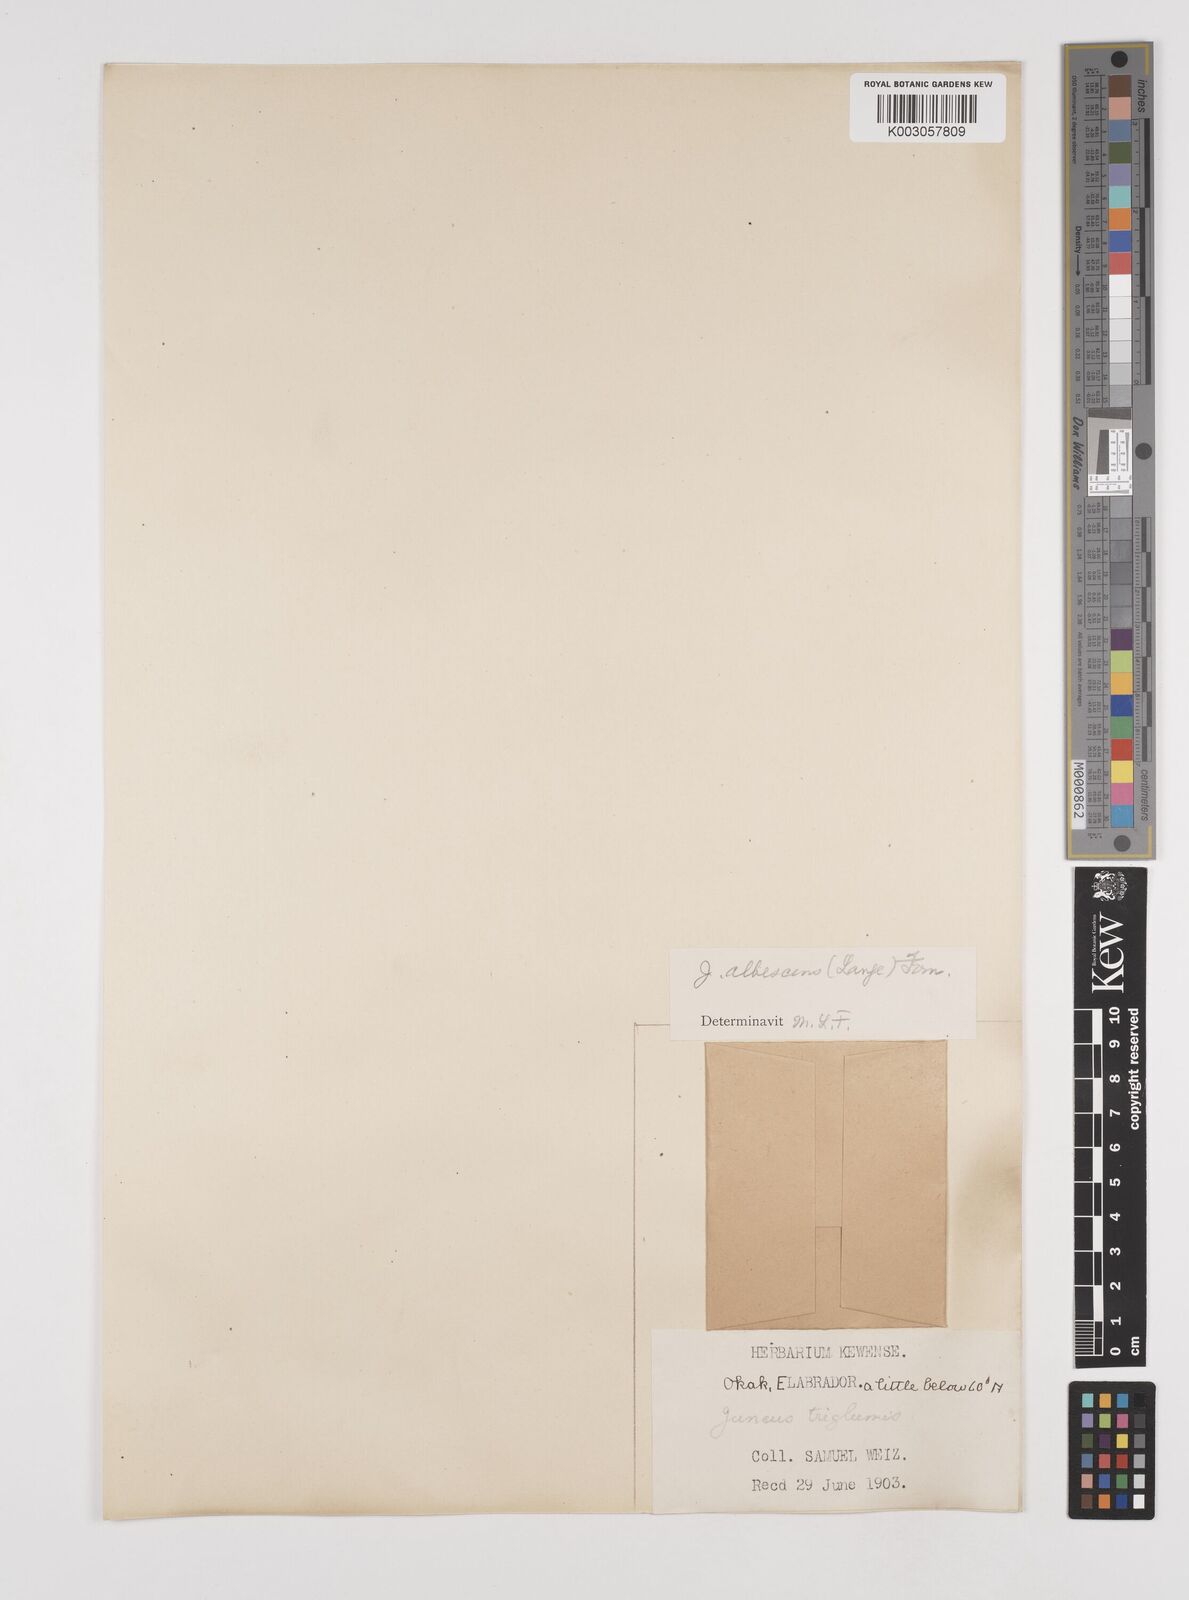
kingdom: Plantae
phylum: Tracheophyta
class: Liliopsida
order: Poales
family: Juncaceae
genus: Juncus
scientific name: Juncus triglumis
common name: Three-flowered rush
